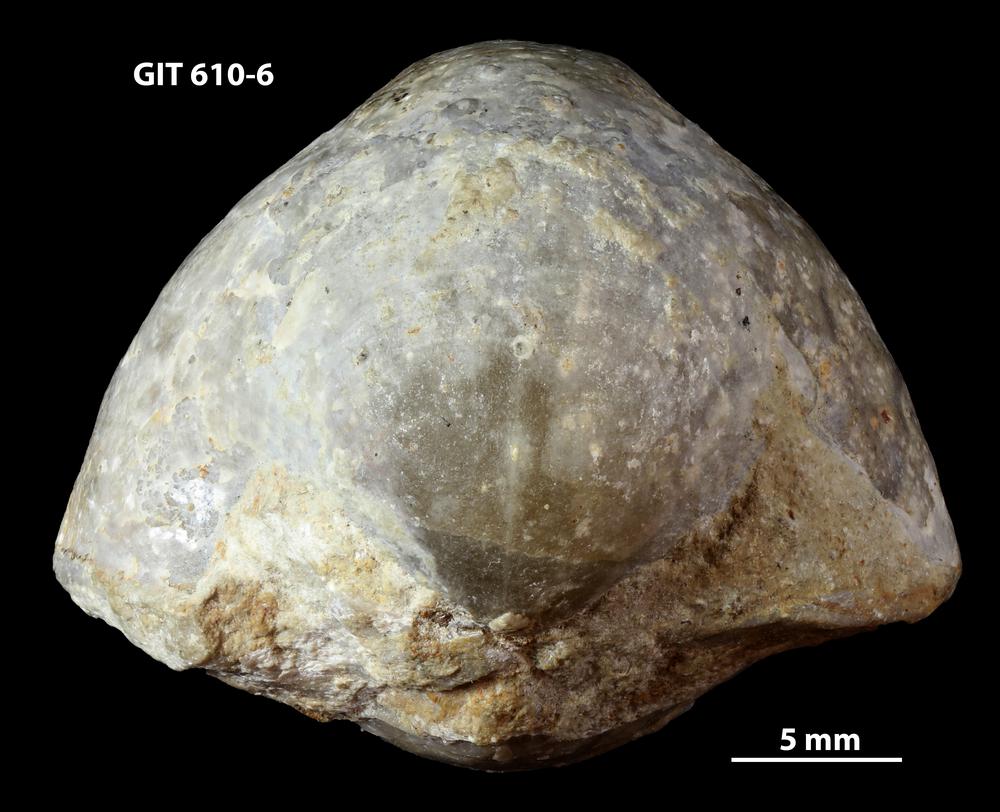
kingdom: Animalia
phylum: Brachiopoda
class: Rhynchonellata
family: Triplesiidae
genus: Triplesia
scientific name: Triplesia insularis
